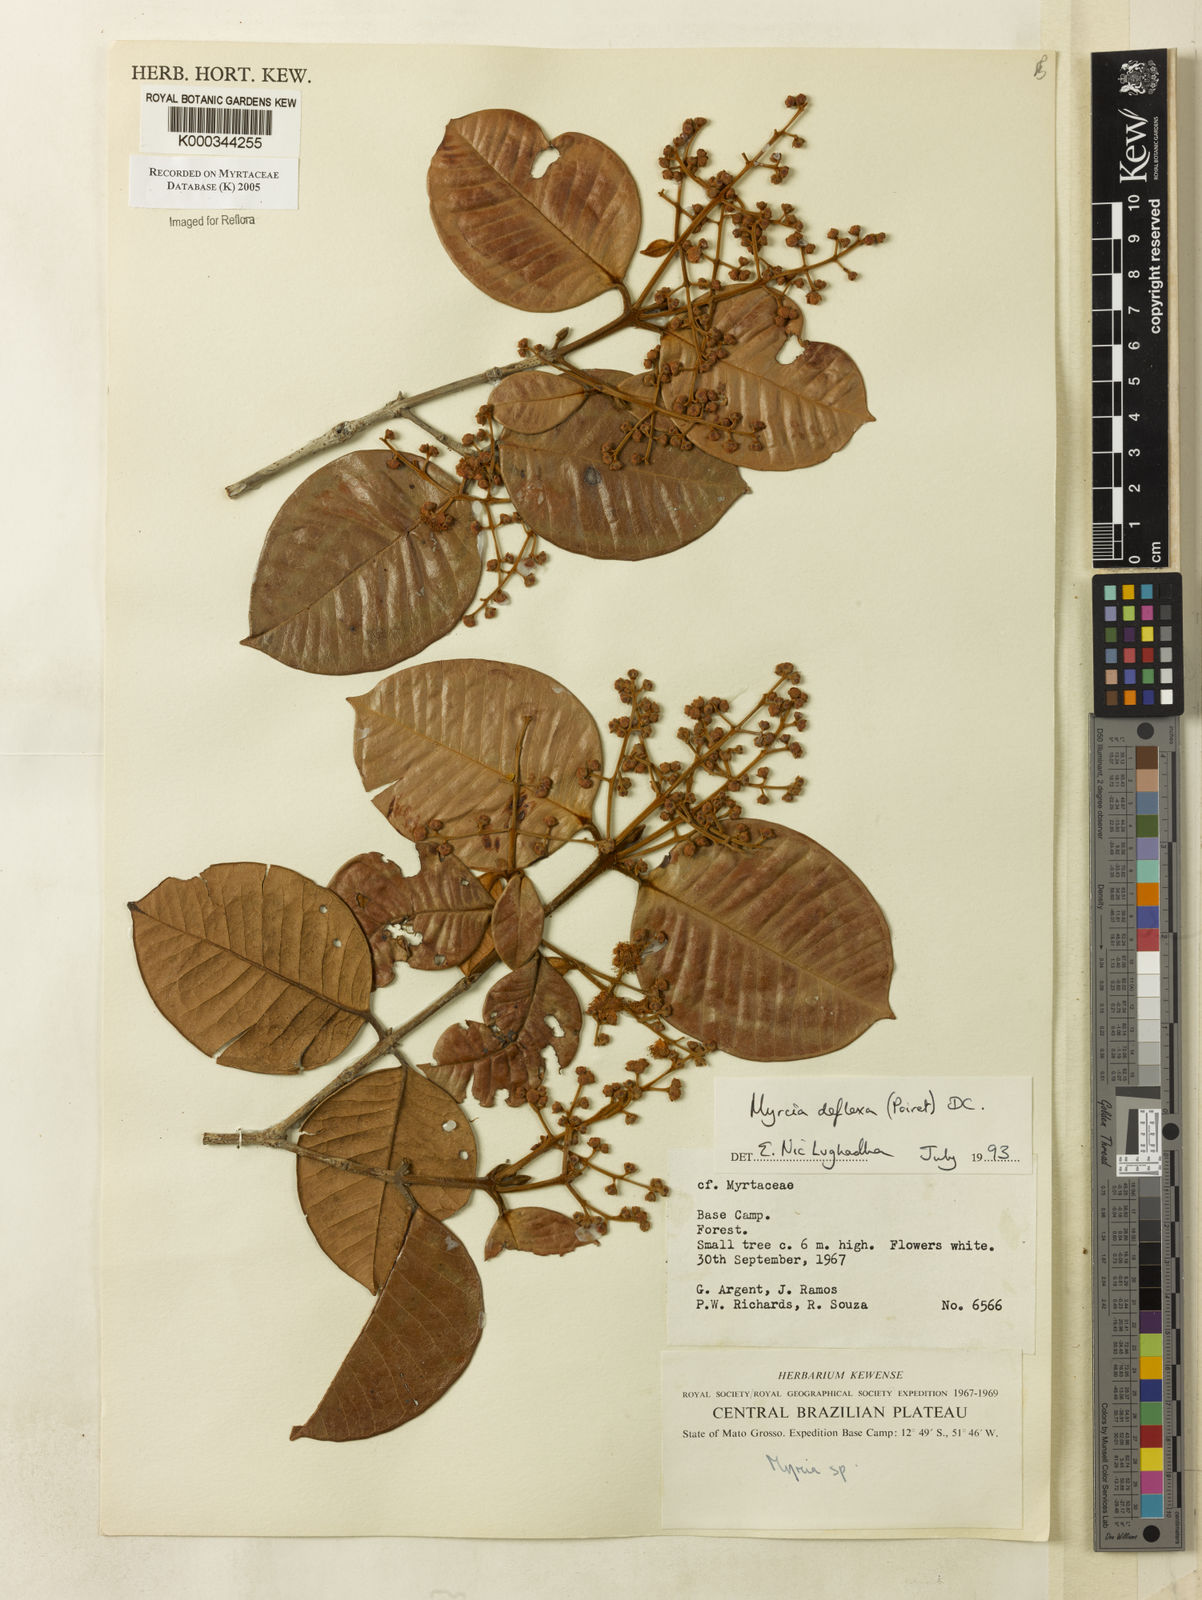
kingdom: Plantae
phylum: Tracheophyta
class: Magnoliopsida
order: Myrtales
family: Myrtaceae
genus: Myrcia
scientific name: Myrcia deflexa
